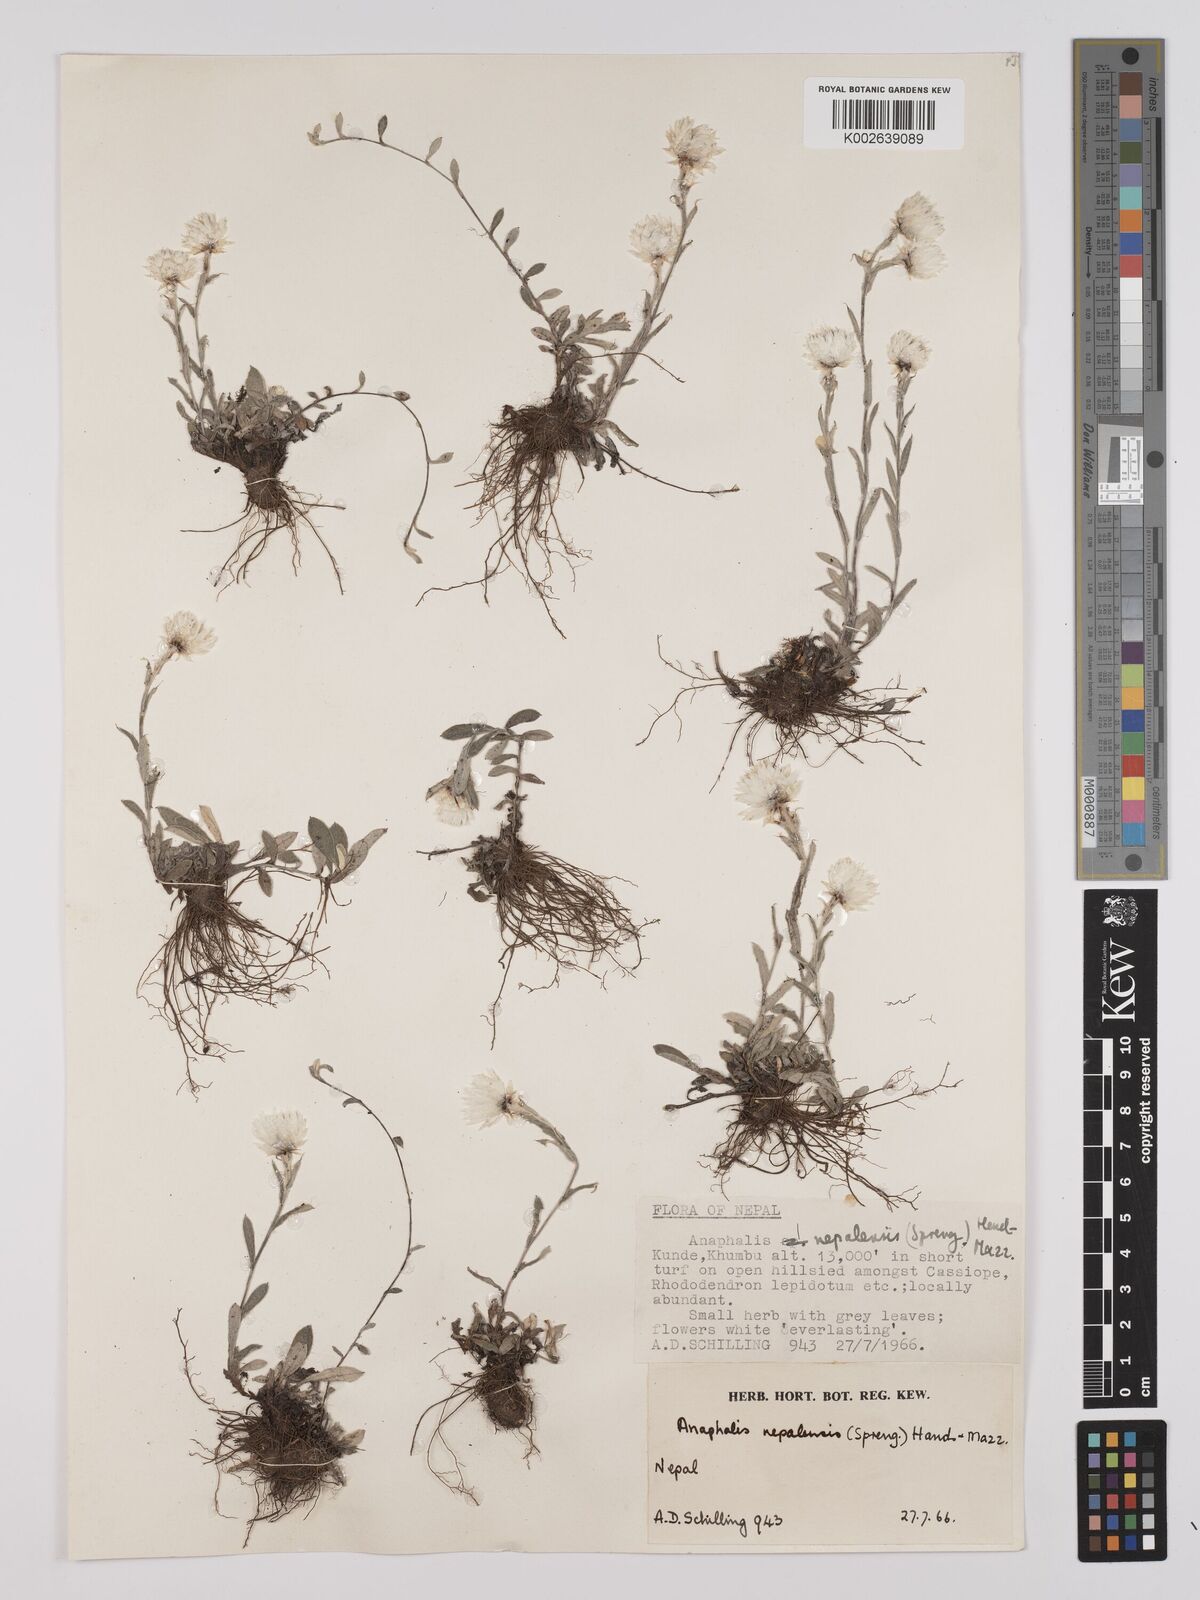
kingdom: Plantae
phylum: Tracheophyta
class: Magnoliopsida
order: Asterales
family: Asteraceae
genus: Anaphalis
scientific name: Anaphalis nepalensis
